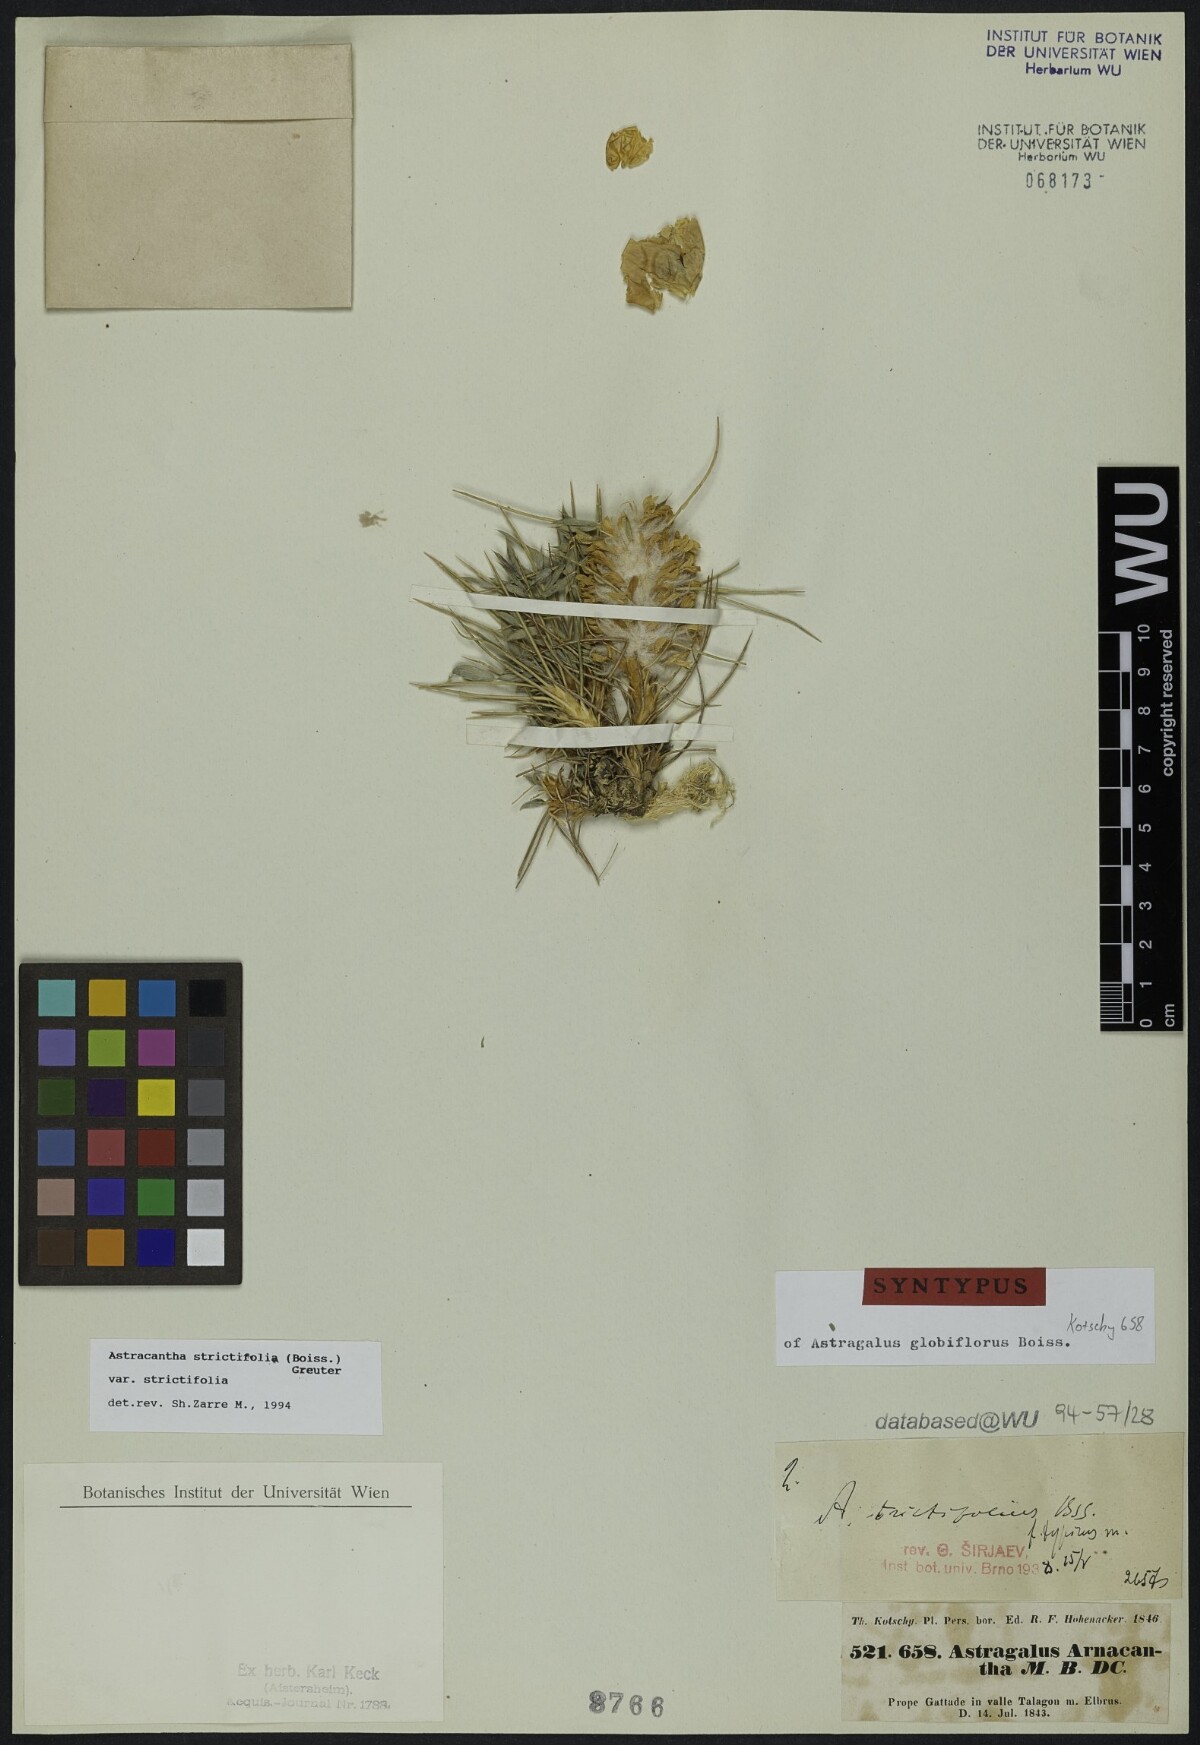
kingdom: Plantae
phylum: Tracheophyta
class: Magnoliopsida
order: Fabales
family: Fabaceae
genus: Astragalus
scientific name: Astragalus globiflorus
